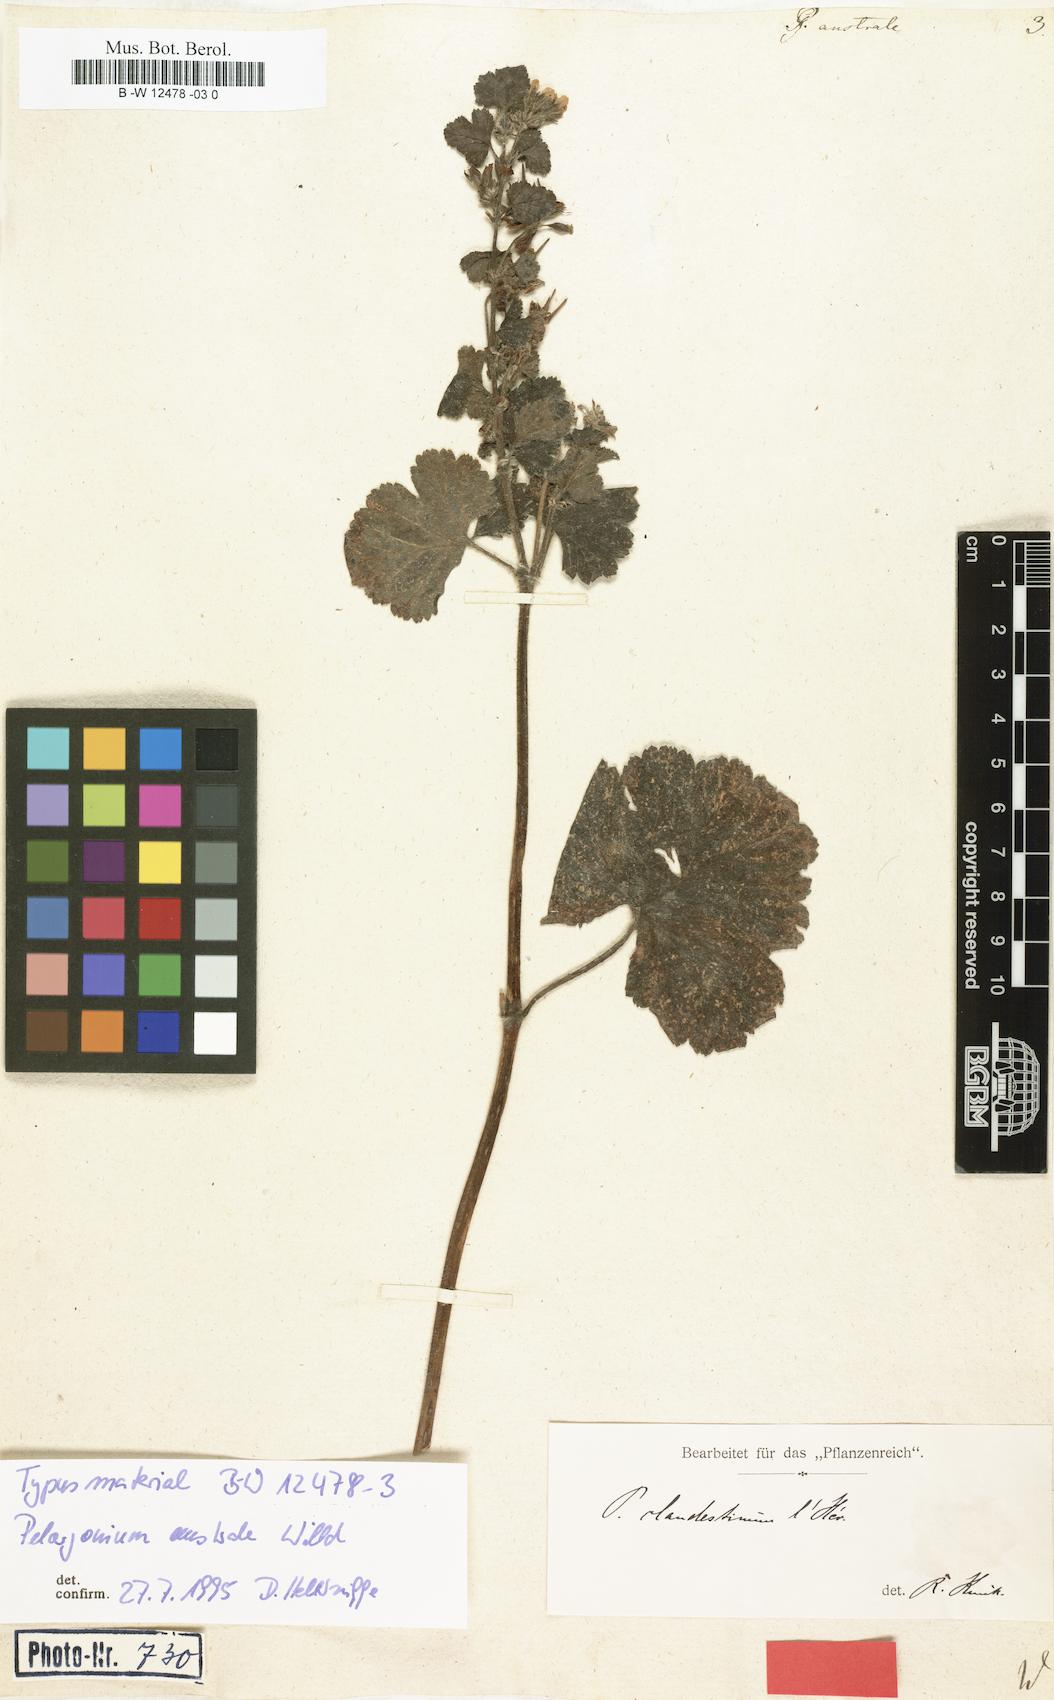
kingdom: Plantae
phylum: Tracheophyta
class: Magnoliopsida
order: Geraniales
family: Geraniaceae
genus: Pelargonium
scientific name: Pelargonium australe
